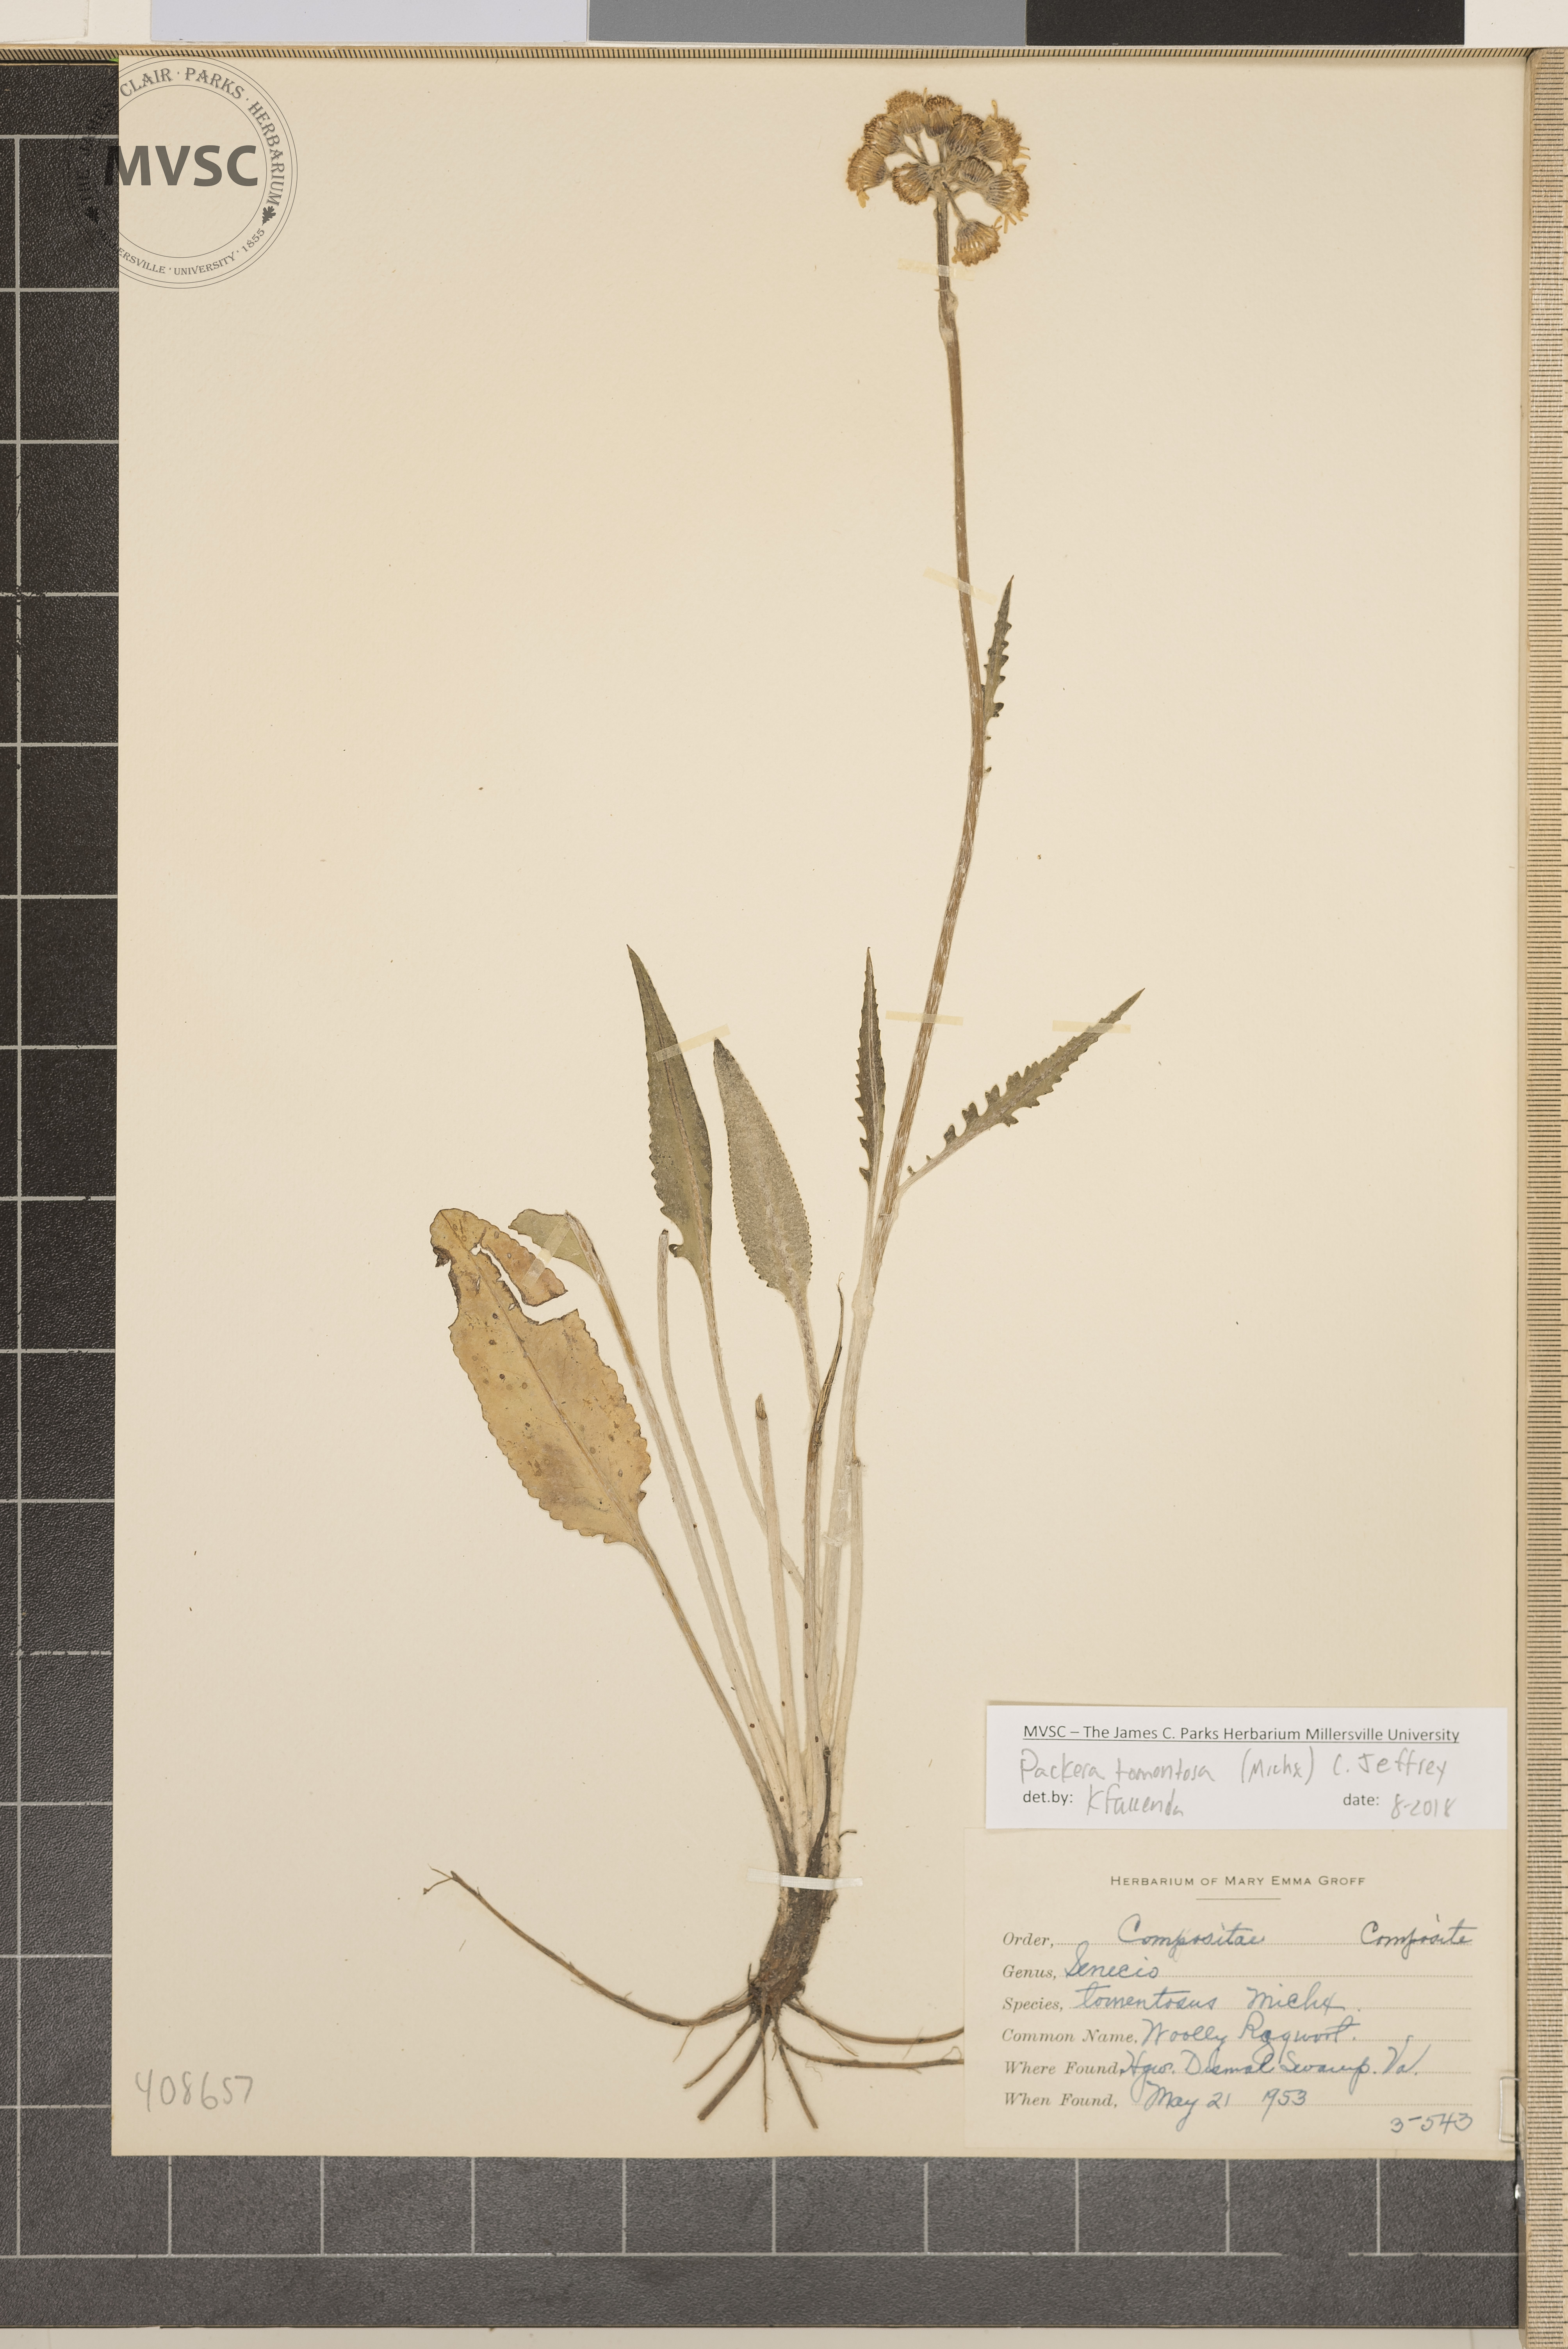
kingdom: Plantae
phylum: Tracheophyta
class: Magnoliopsida
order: Asterales
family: Asteraceae
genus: Packera
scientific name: Packera dubia
